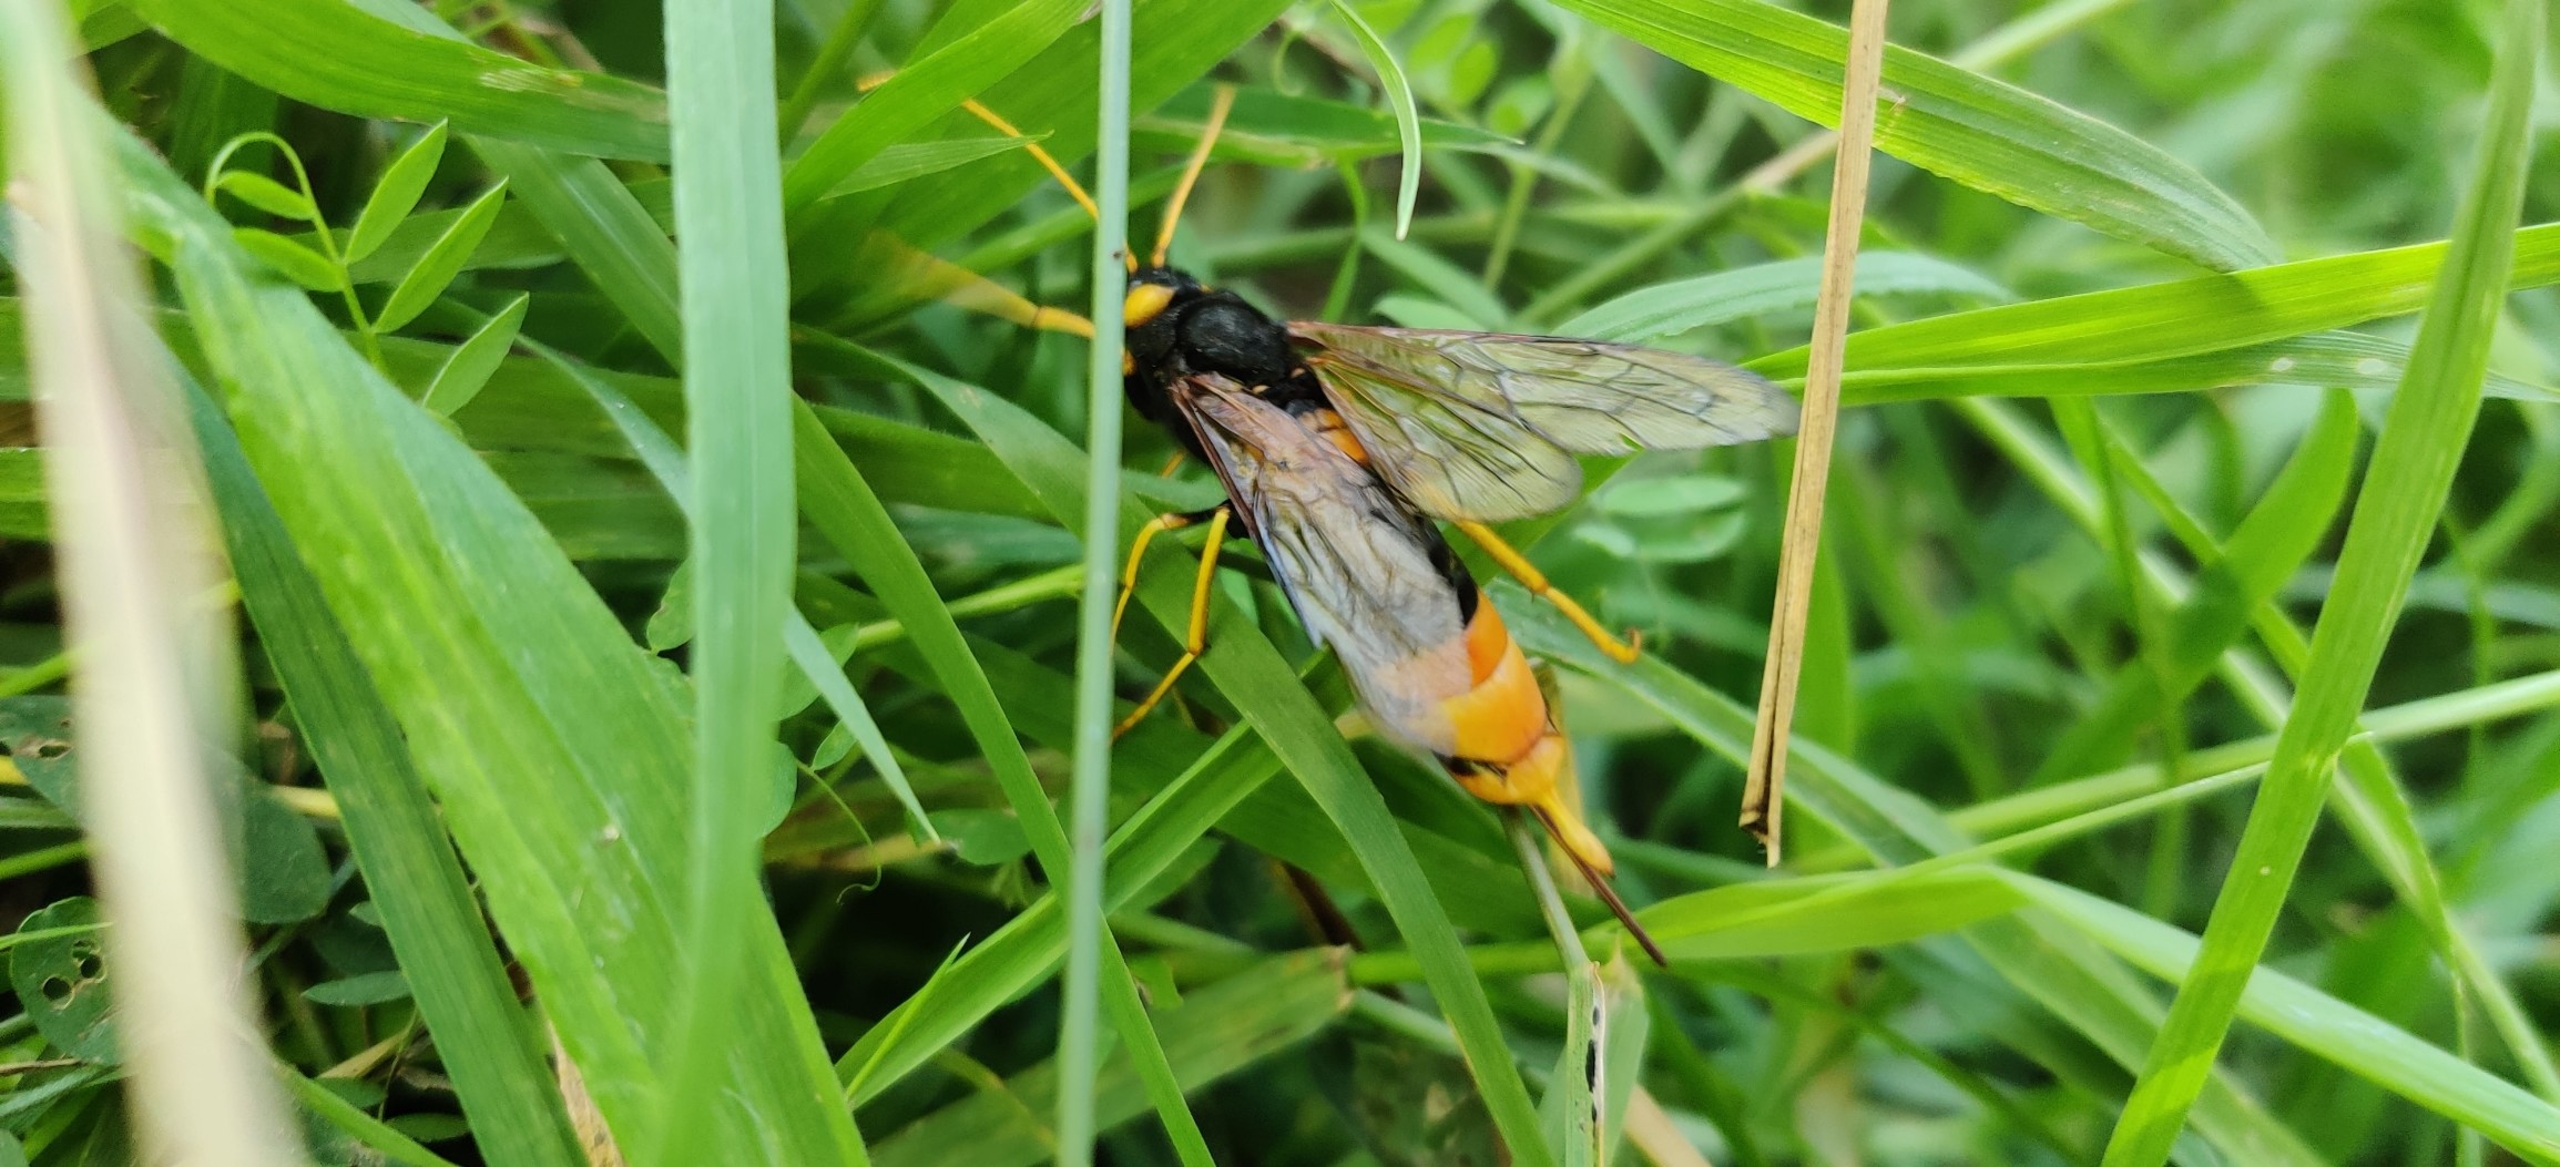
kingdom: Animalia
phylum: Arthropoda
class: Insecta
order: Hymenoptera
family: Siricidae
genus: Urocerus
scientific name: Urocerus gigas
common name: Kæmpetræhveps
